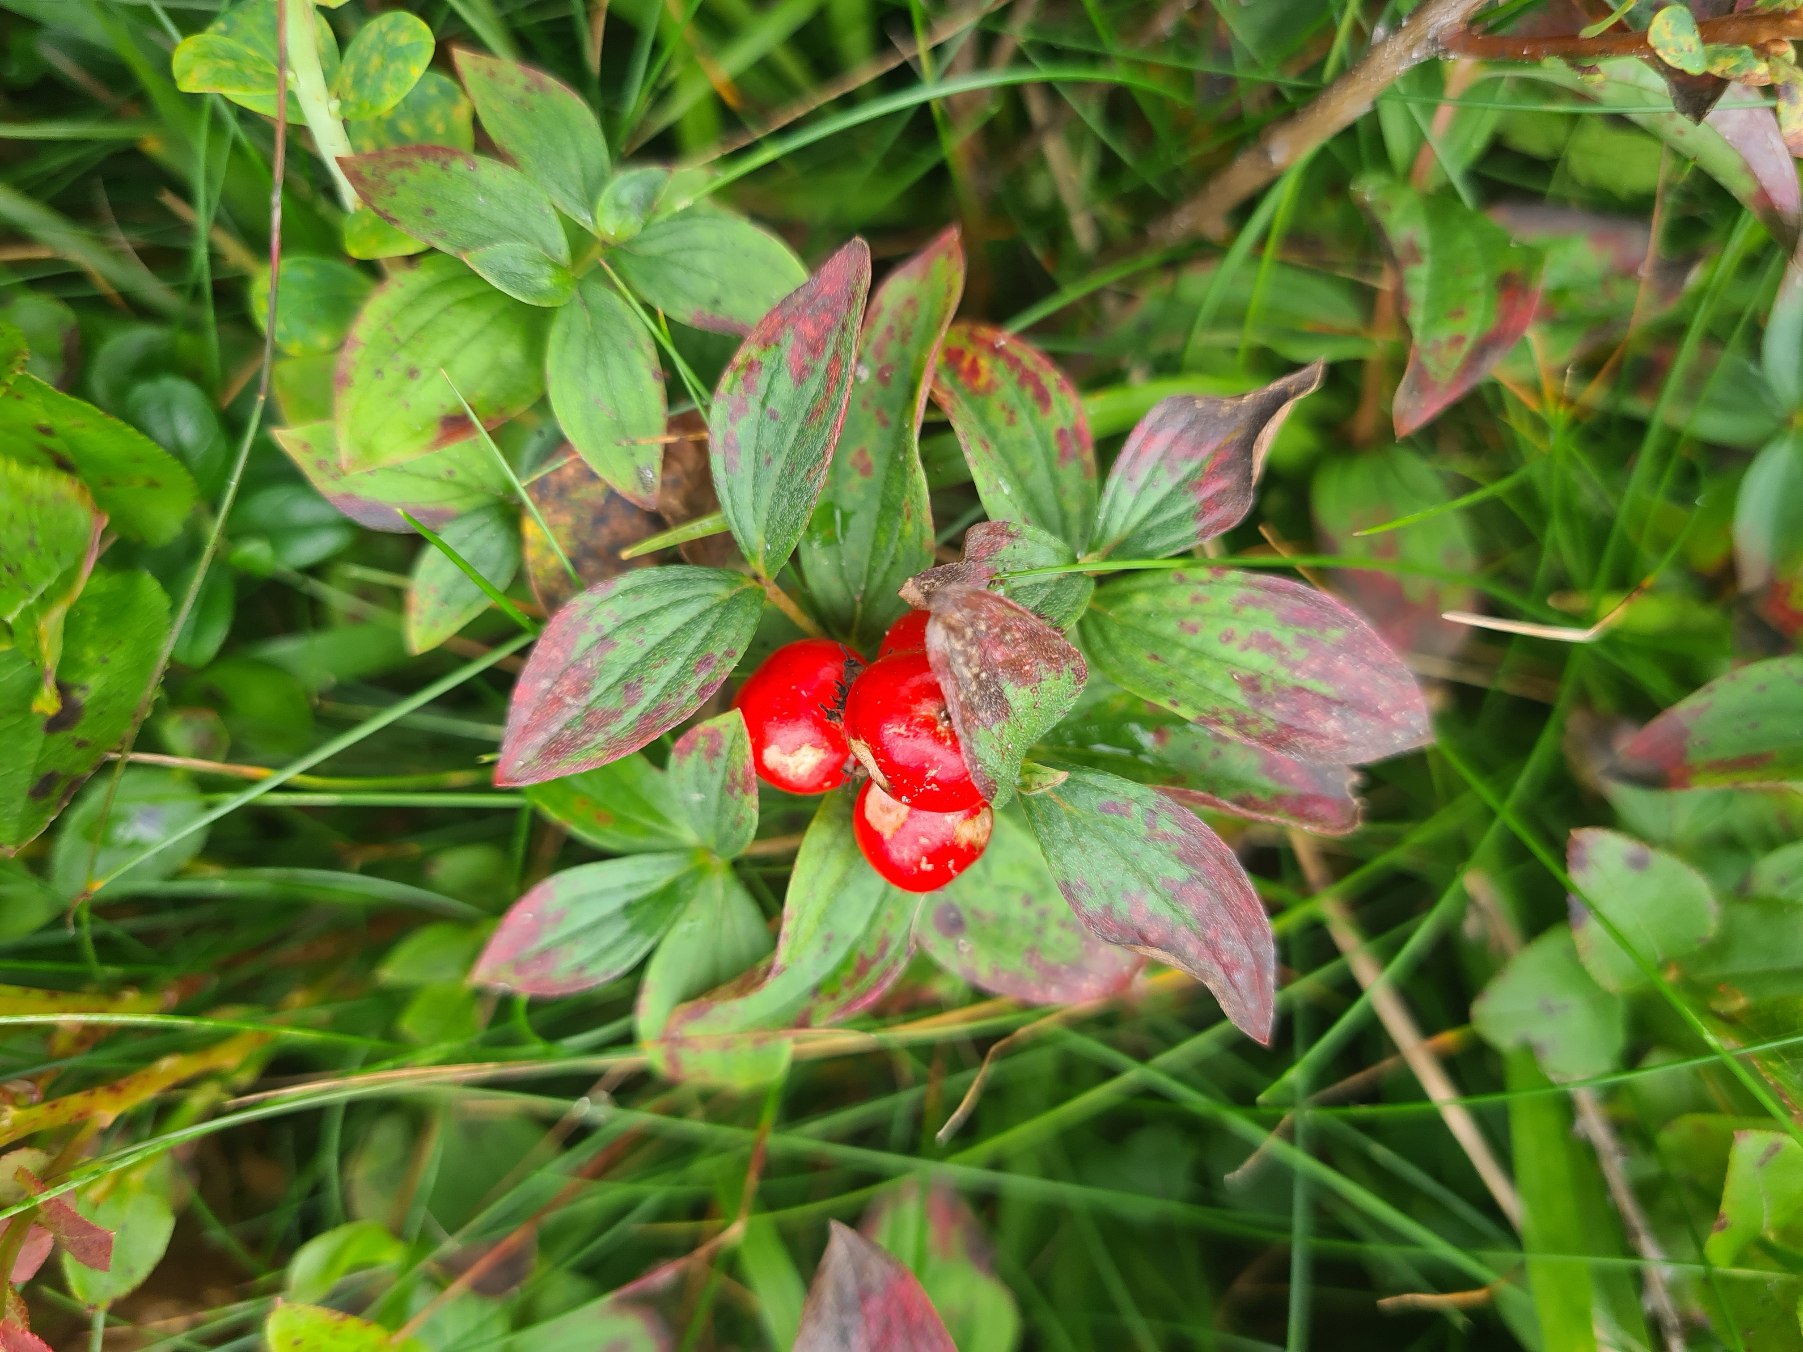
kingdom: Plantae
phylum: Tracheophyta
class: Magnoliopsida
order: Cornales
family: Cornaceae
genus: Cornus
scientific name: Cornus suecica
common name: Hønsebær
